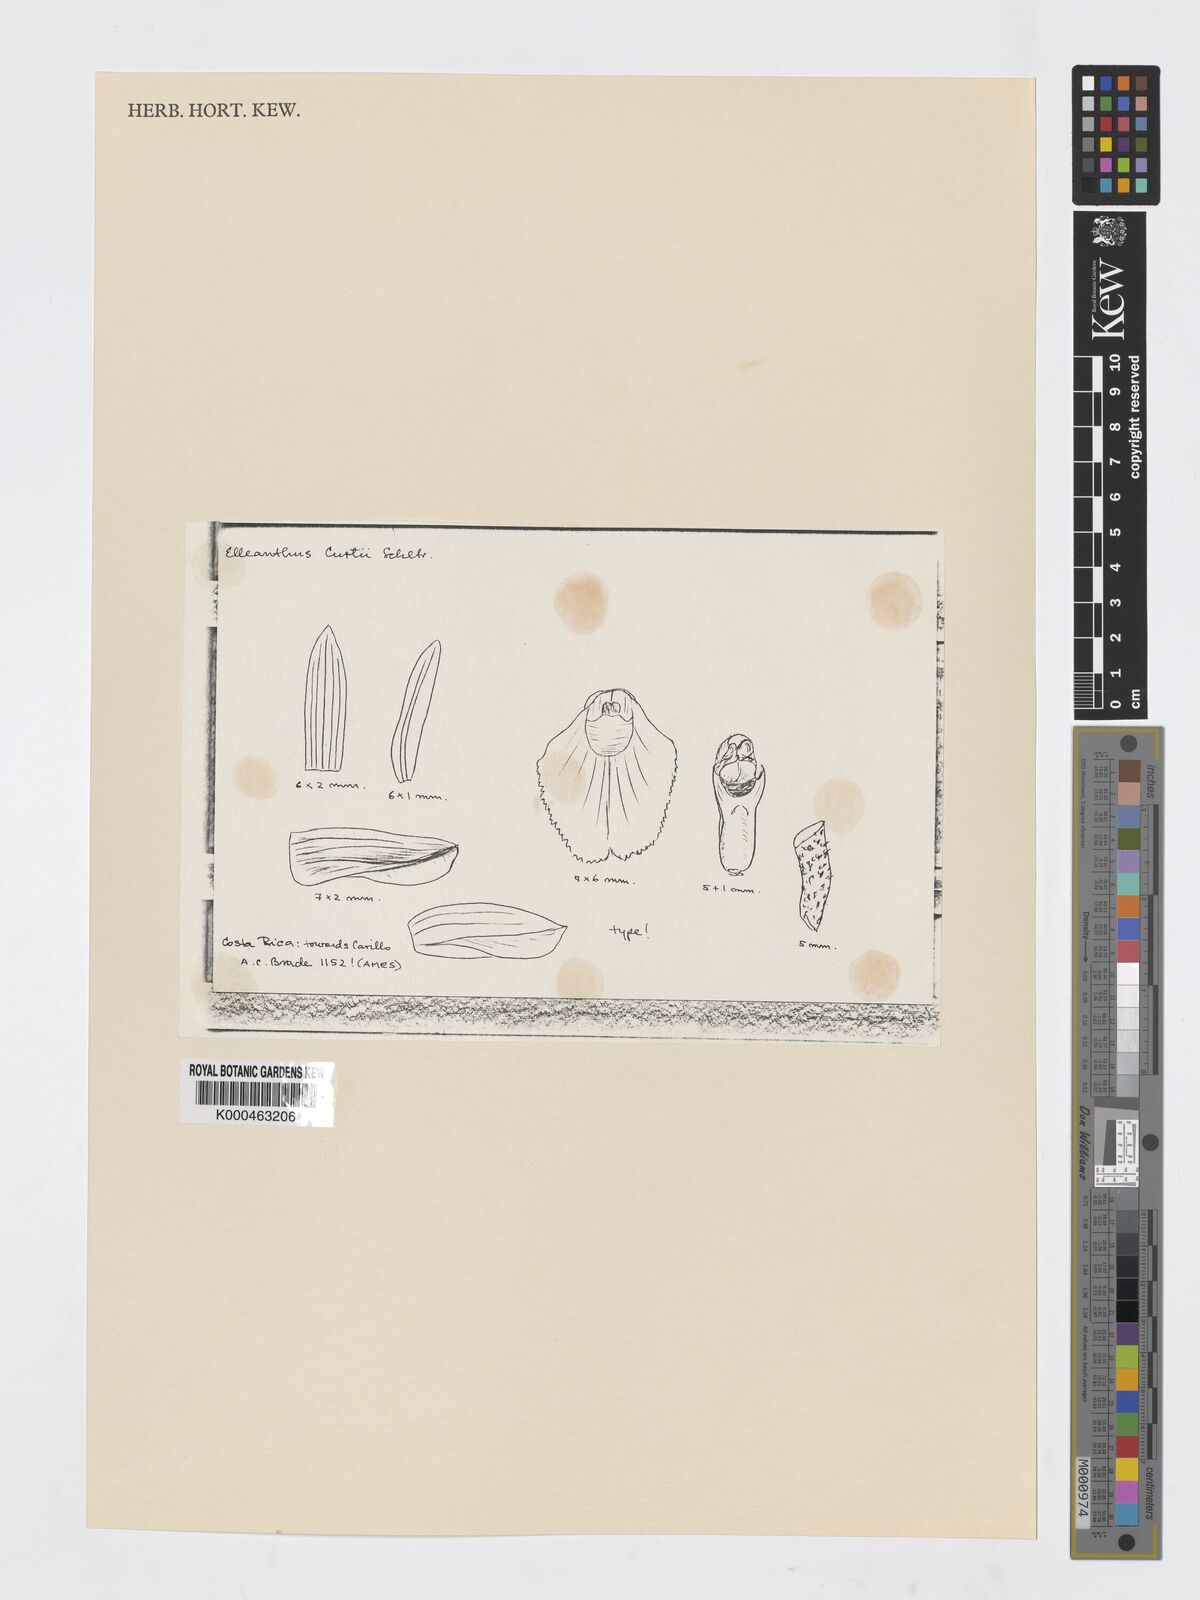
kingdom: Plantae
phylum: Tracheophyta
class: Liliopsida
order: Asparagales
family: Orchidaceae
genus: Elleanthus
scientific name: Elleanthus hymenophorus
